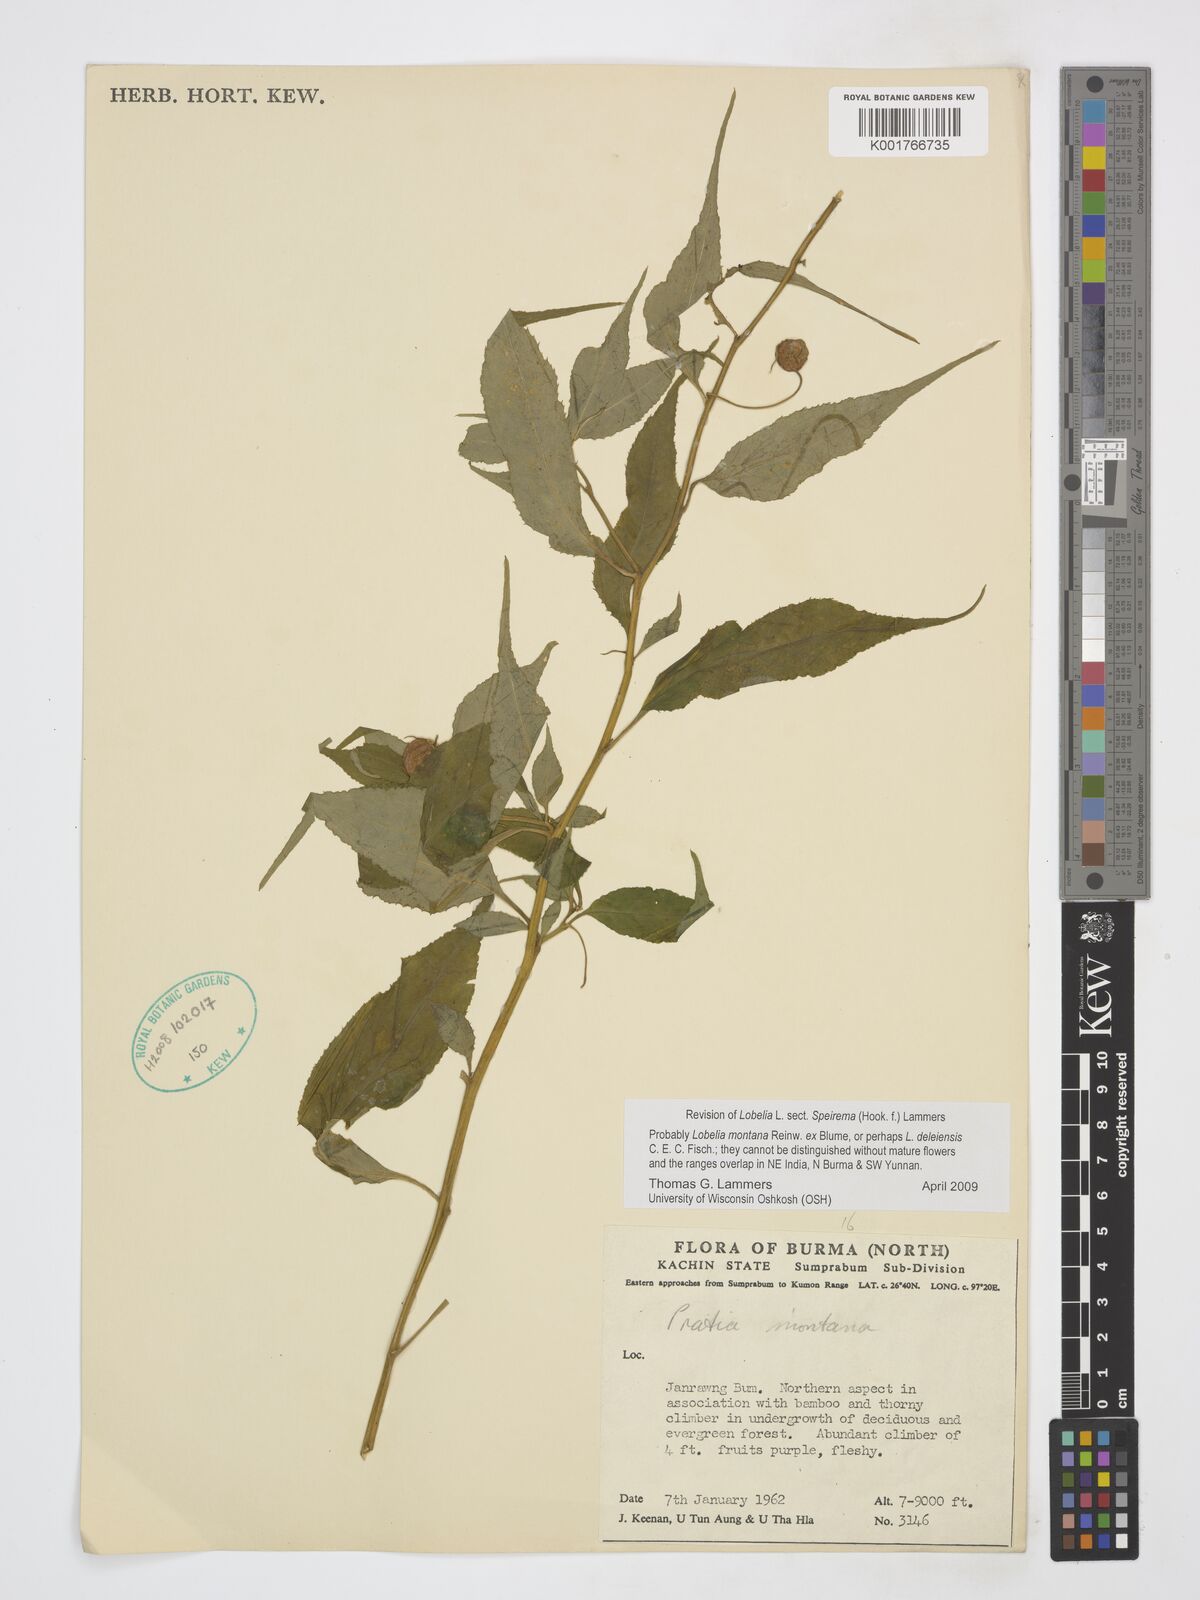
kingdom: Plantae
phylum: Tracheophyta
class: Magnoliopsida
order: Asterales
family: Campanulaceae
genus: Lobelia
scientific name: Lobelia montana
